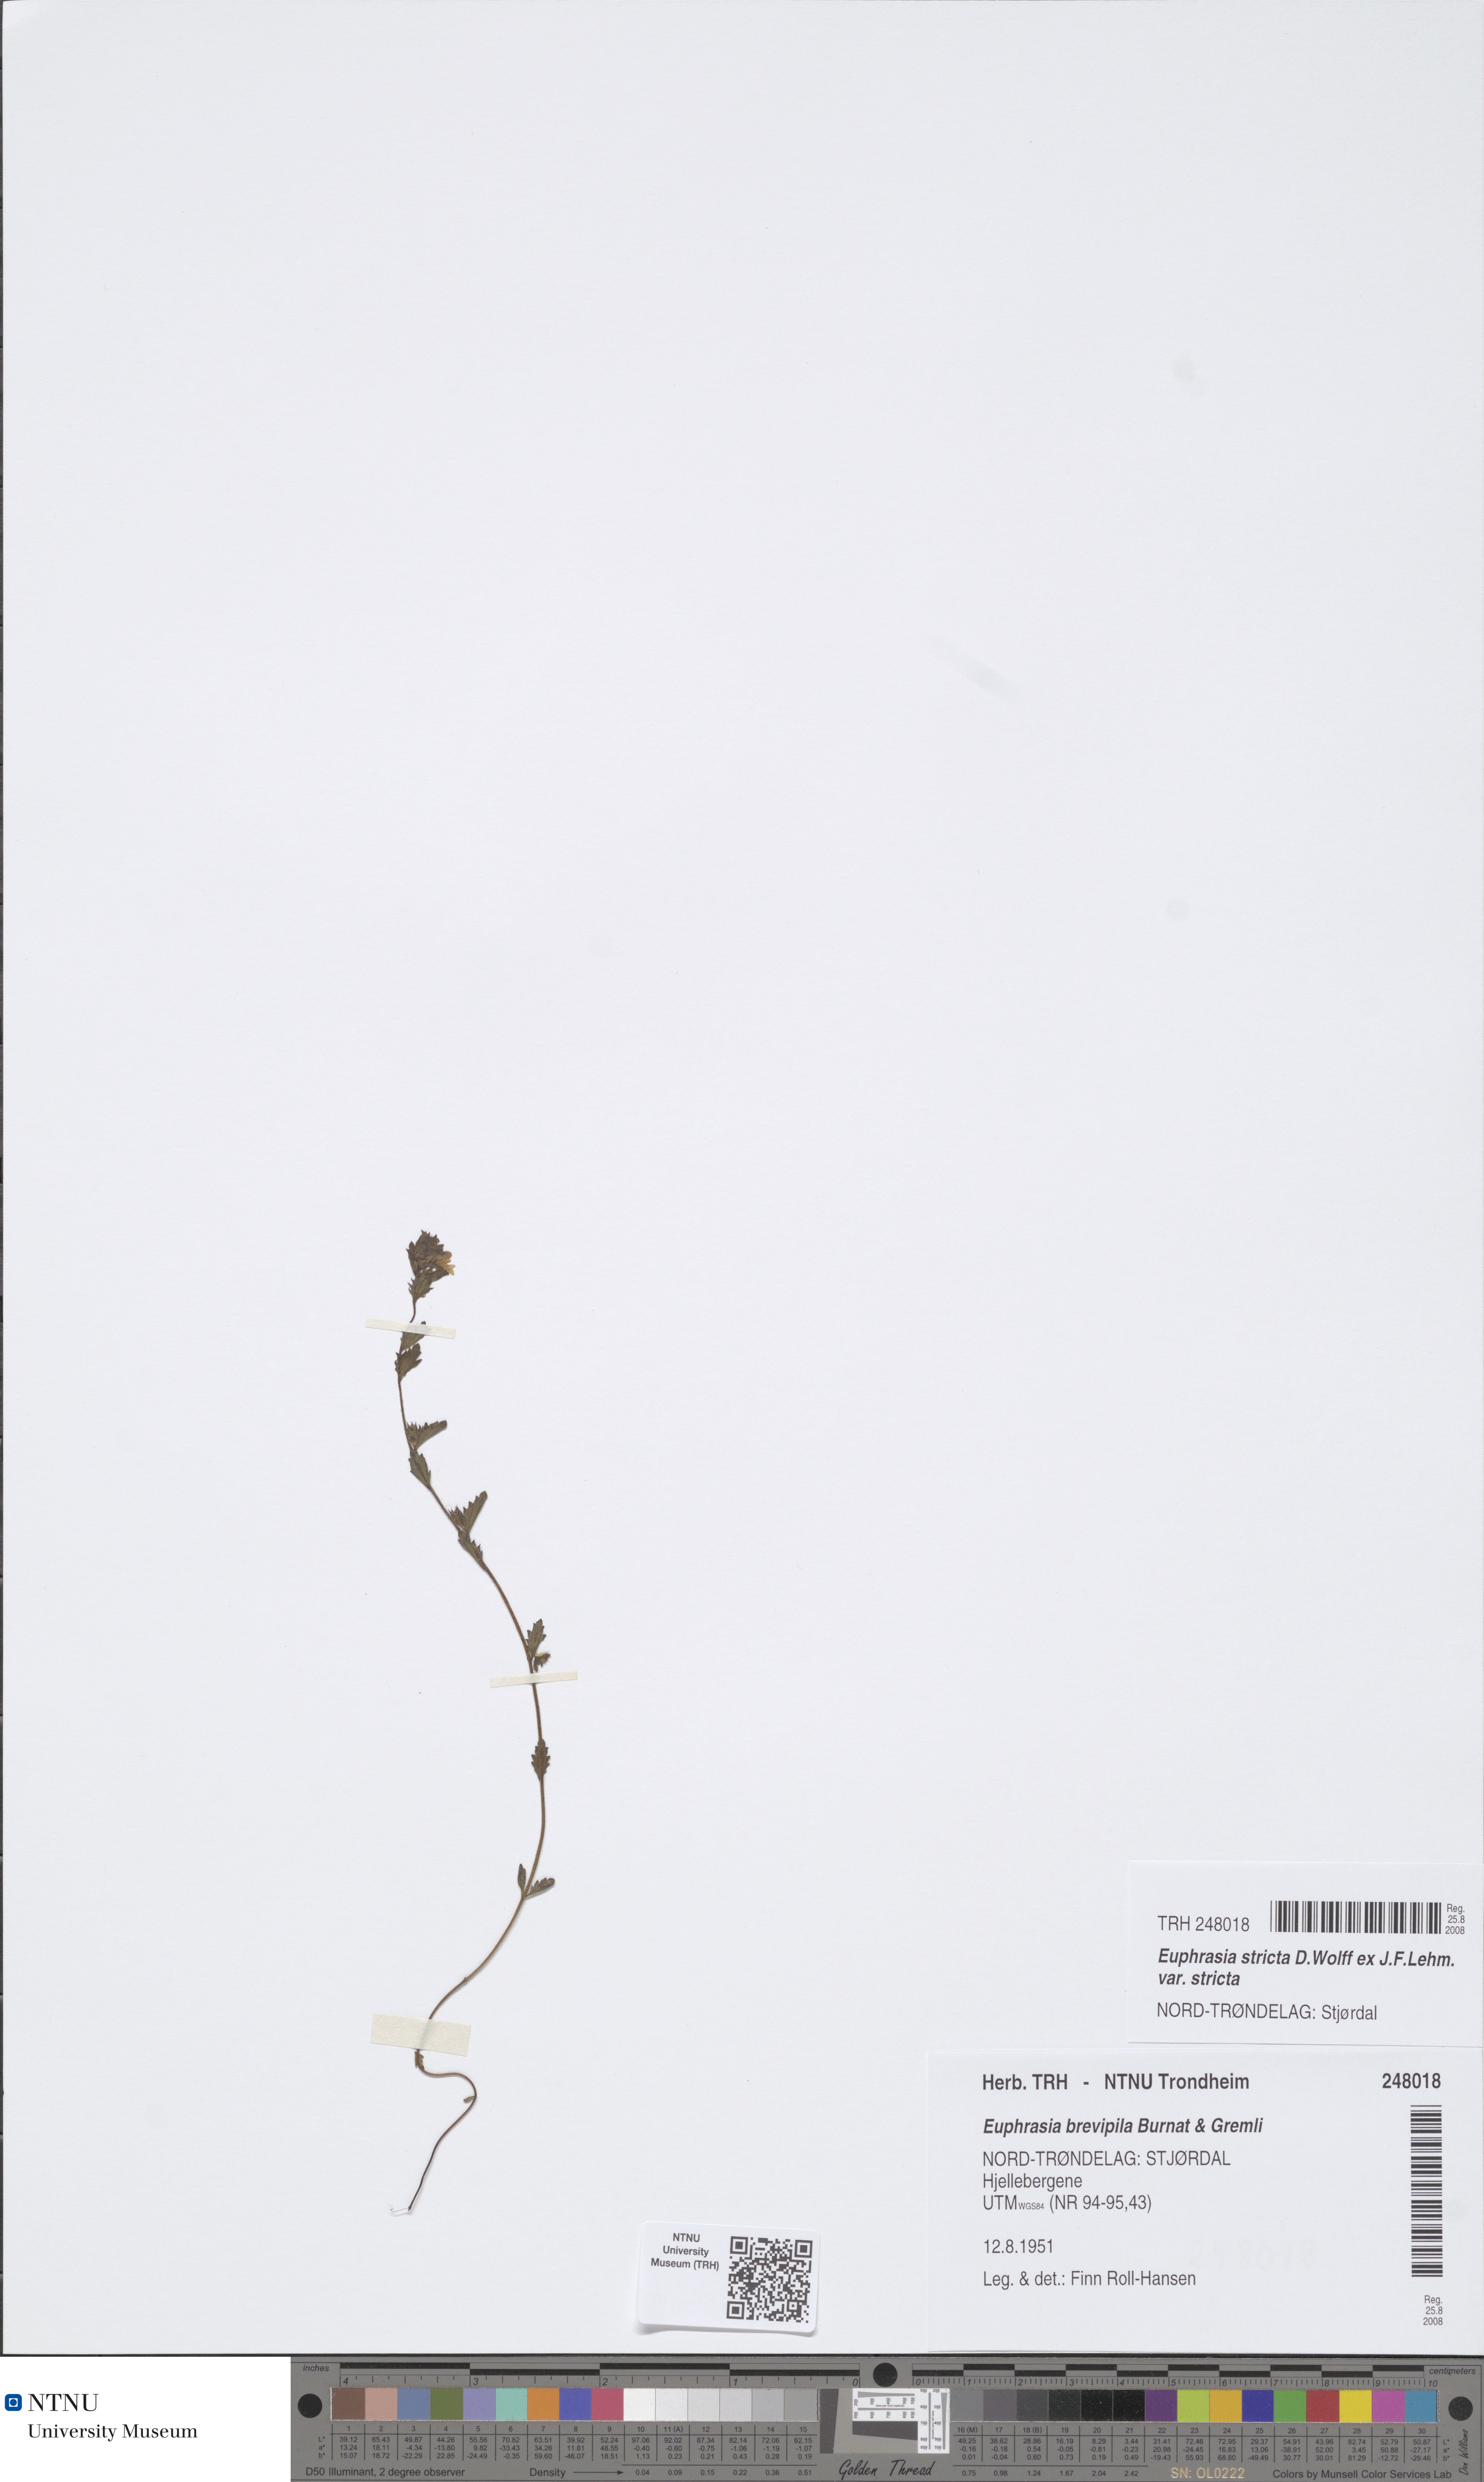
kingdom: Plantae
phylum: Tracheophyta
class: Magnoliopsida
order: Lamiales
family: Orobanchaceae
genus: Euphrasia
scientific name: Euphrasia vernalis
